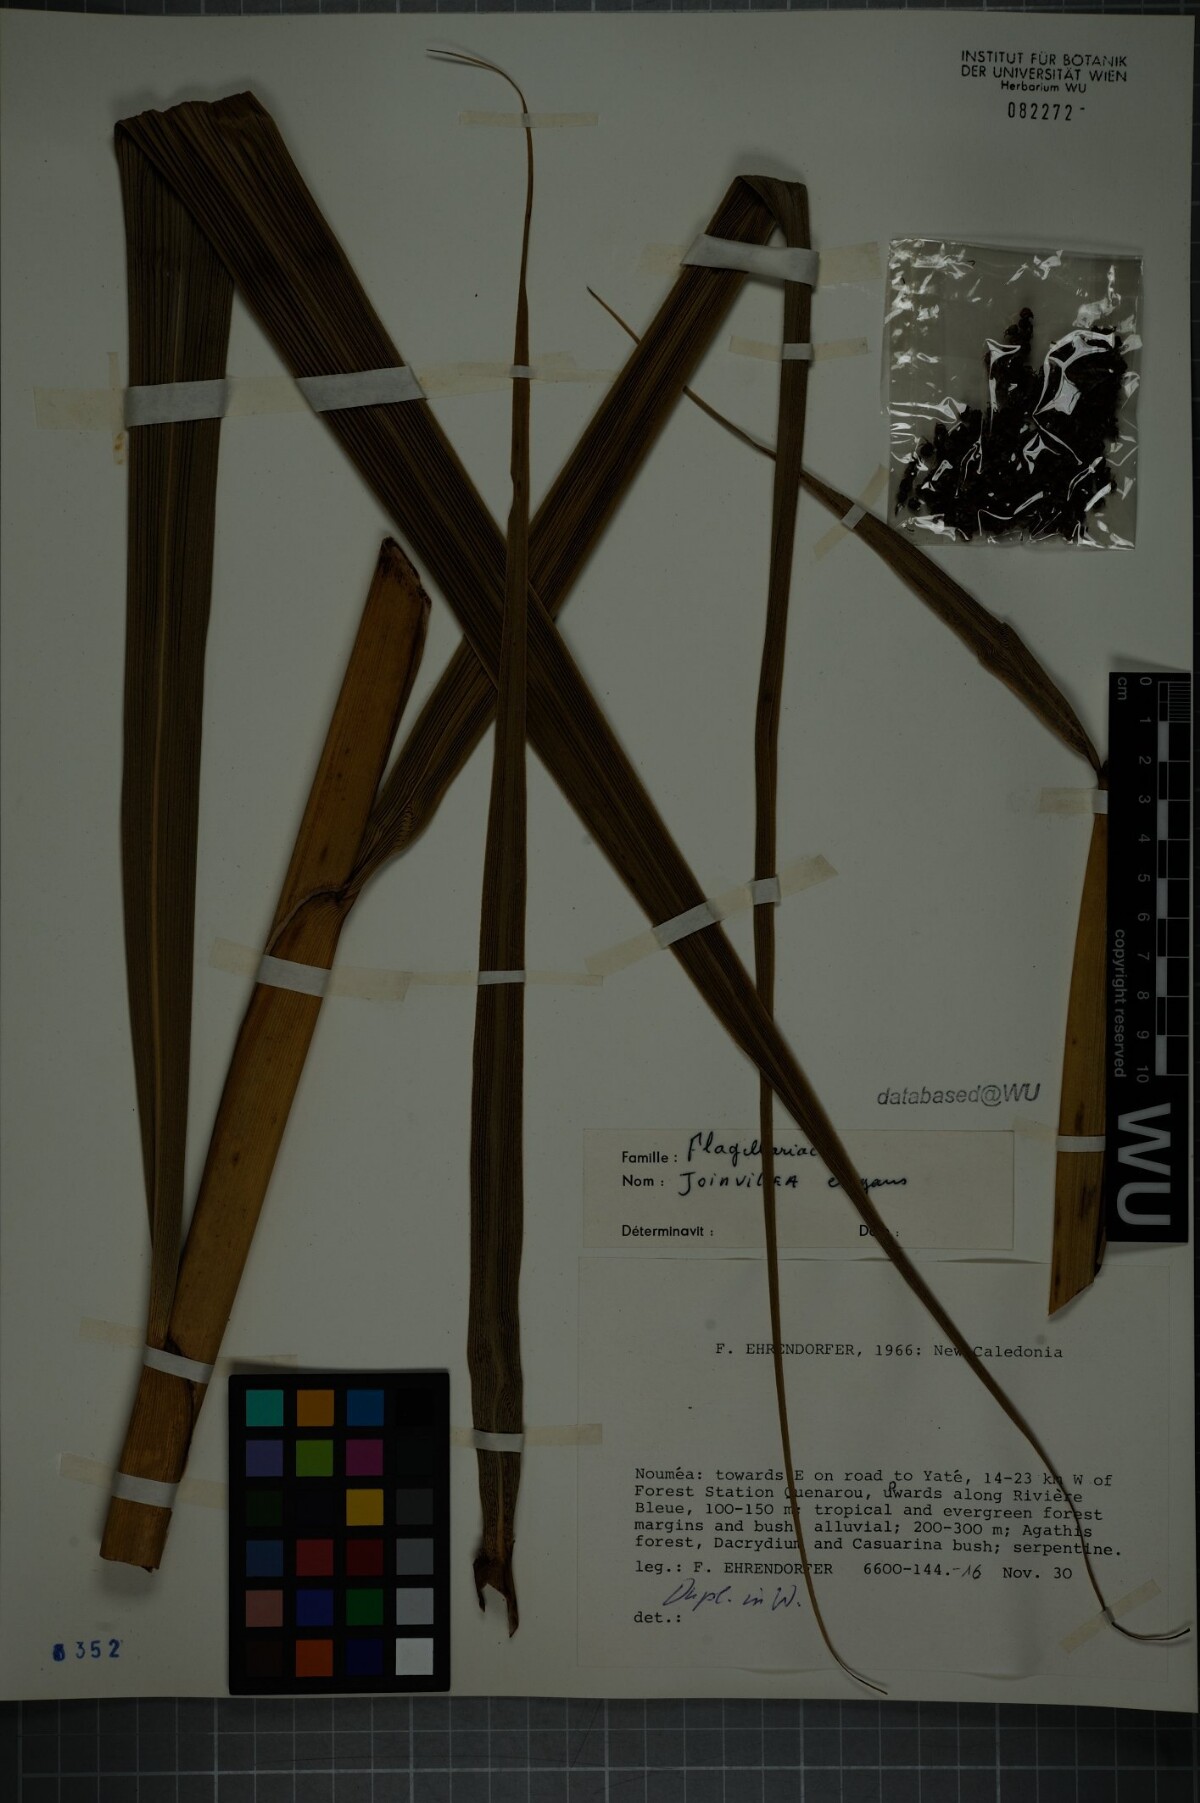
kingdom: Plantae
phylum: Tracheophyta
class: Liliopsida
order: Poales
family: Joinvilleaceae
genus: Joinvillea
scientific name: Joinvillea plicata
